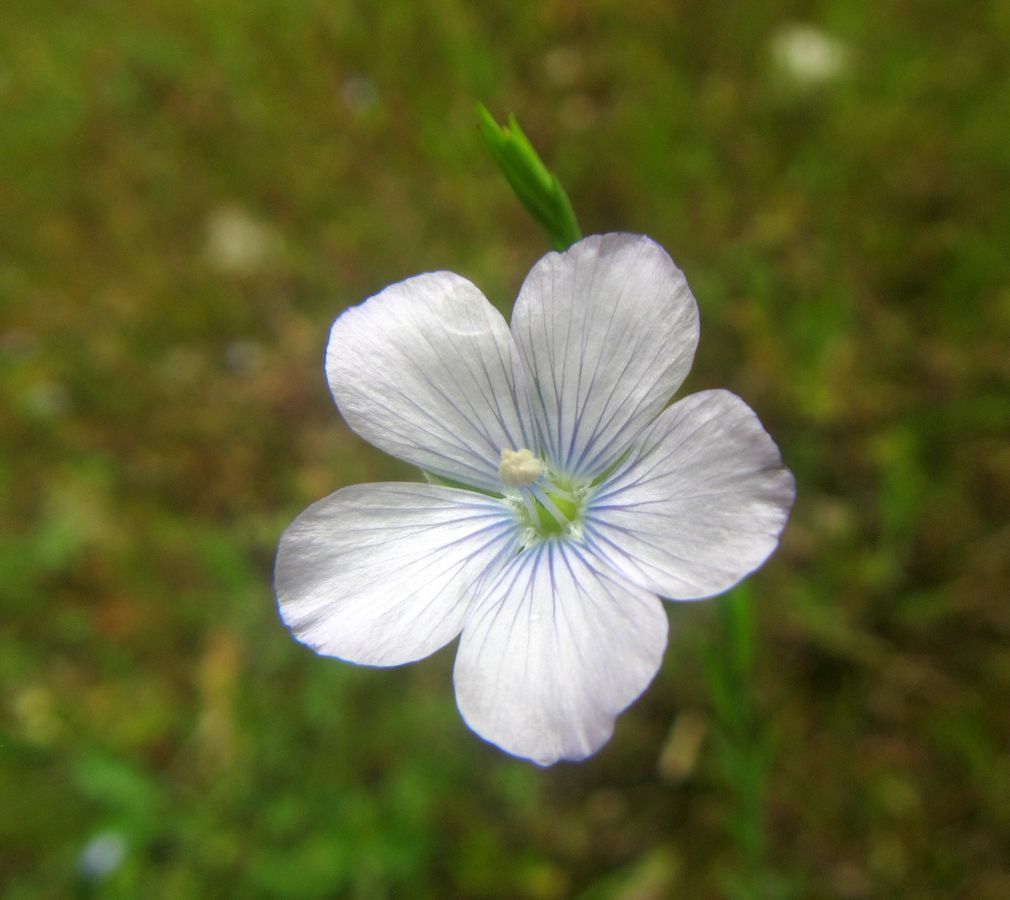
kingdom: Plantae
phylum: Tracheophyta
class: Magnoliopsida
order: Malpighiales
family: Linaceae
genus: Linum
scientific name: Linum bienne
